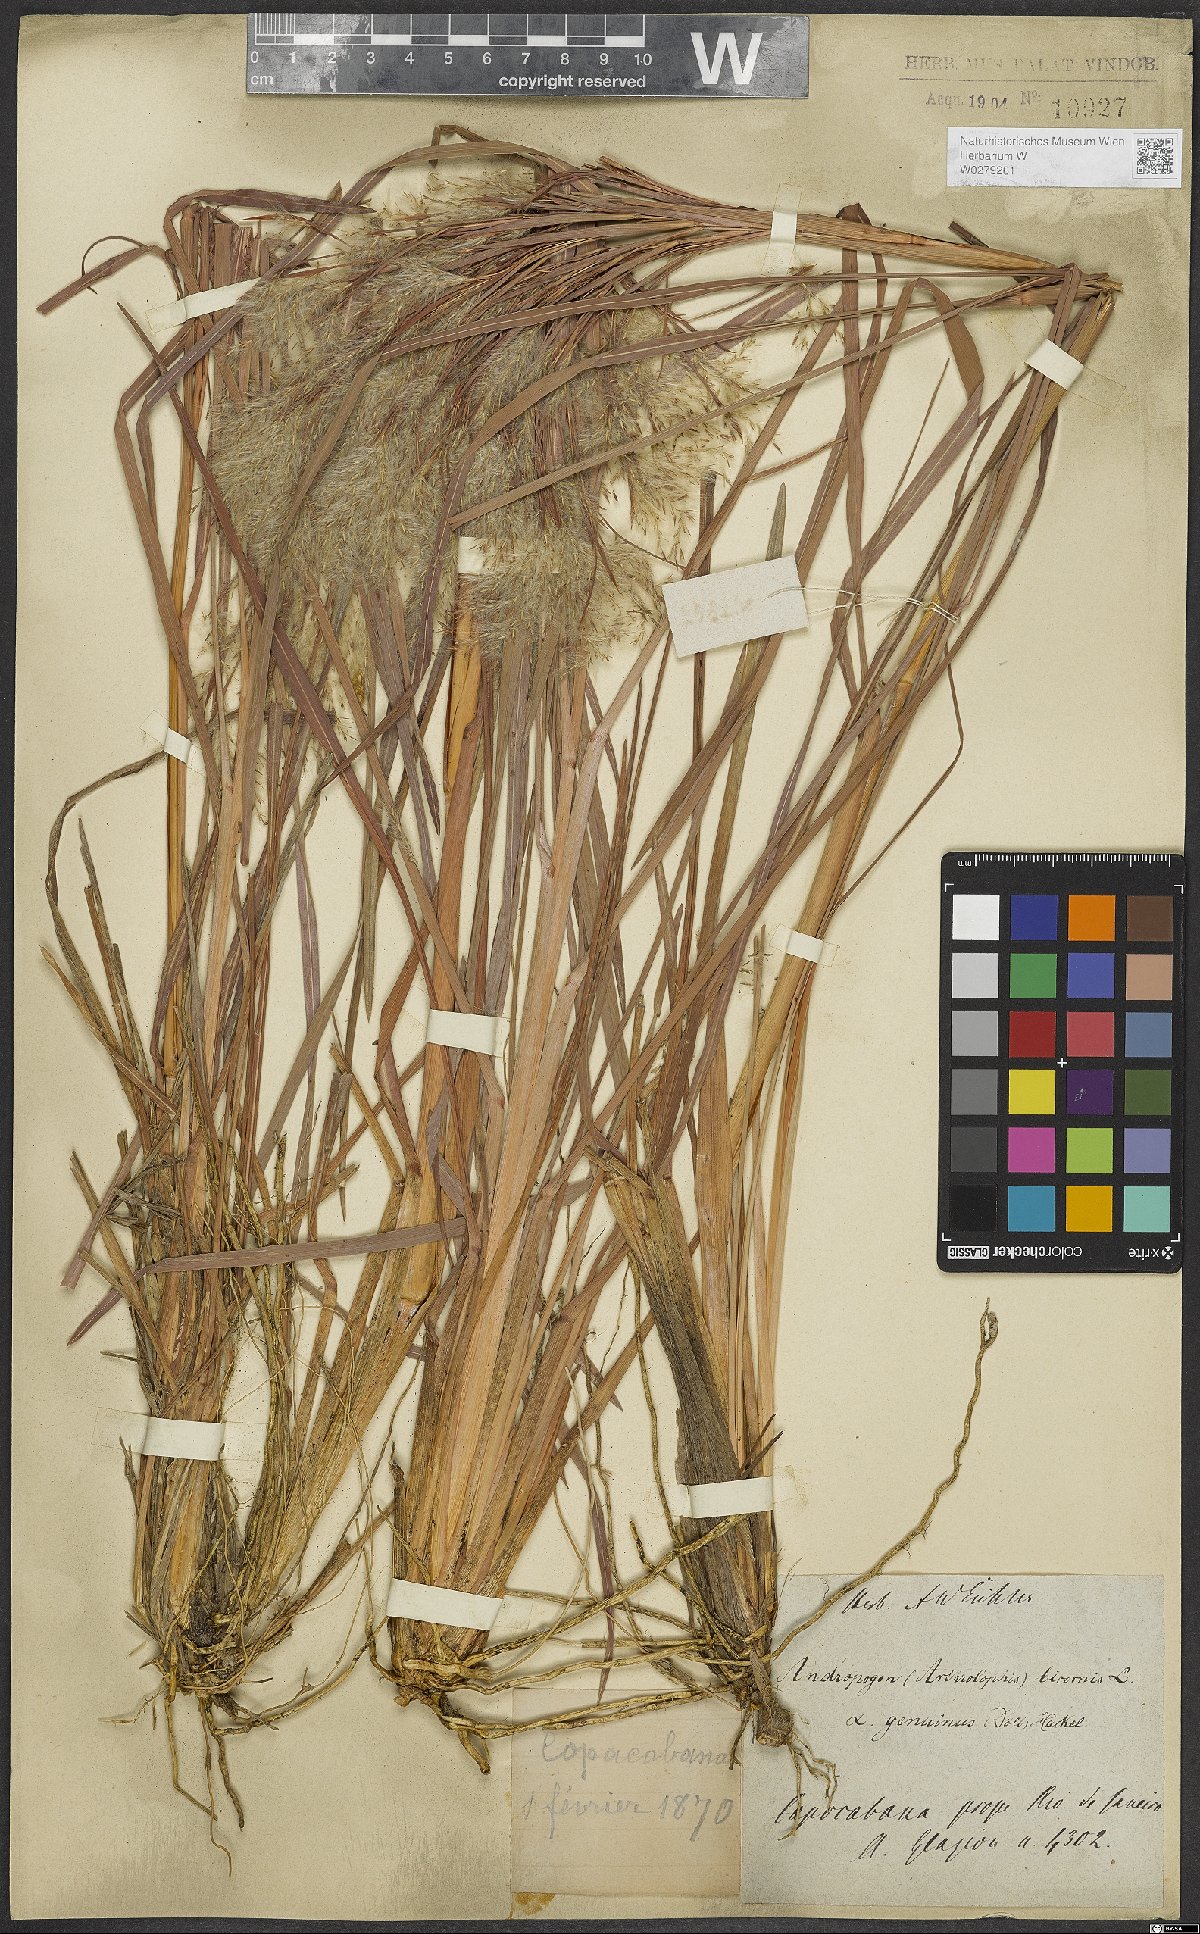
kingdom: Plantae
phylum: Tracheophyta
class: Liliopsida
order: Poales
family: Poaceae
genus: Andropogon
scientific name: Andropogon bicornis
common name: West indian foxtail grass
